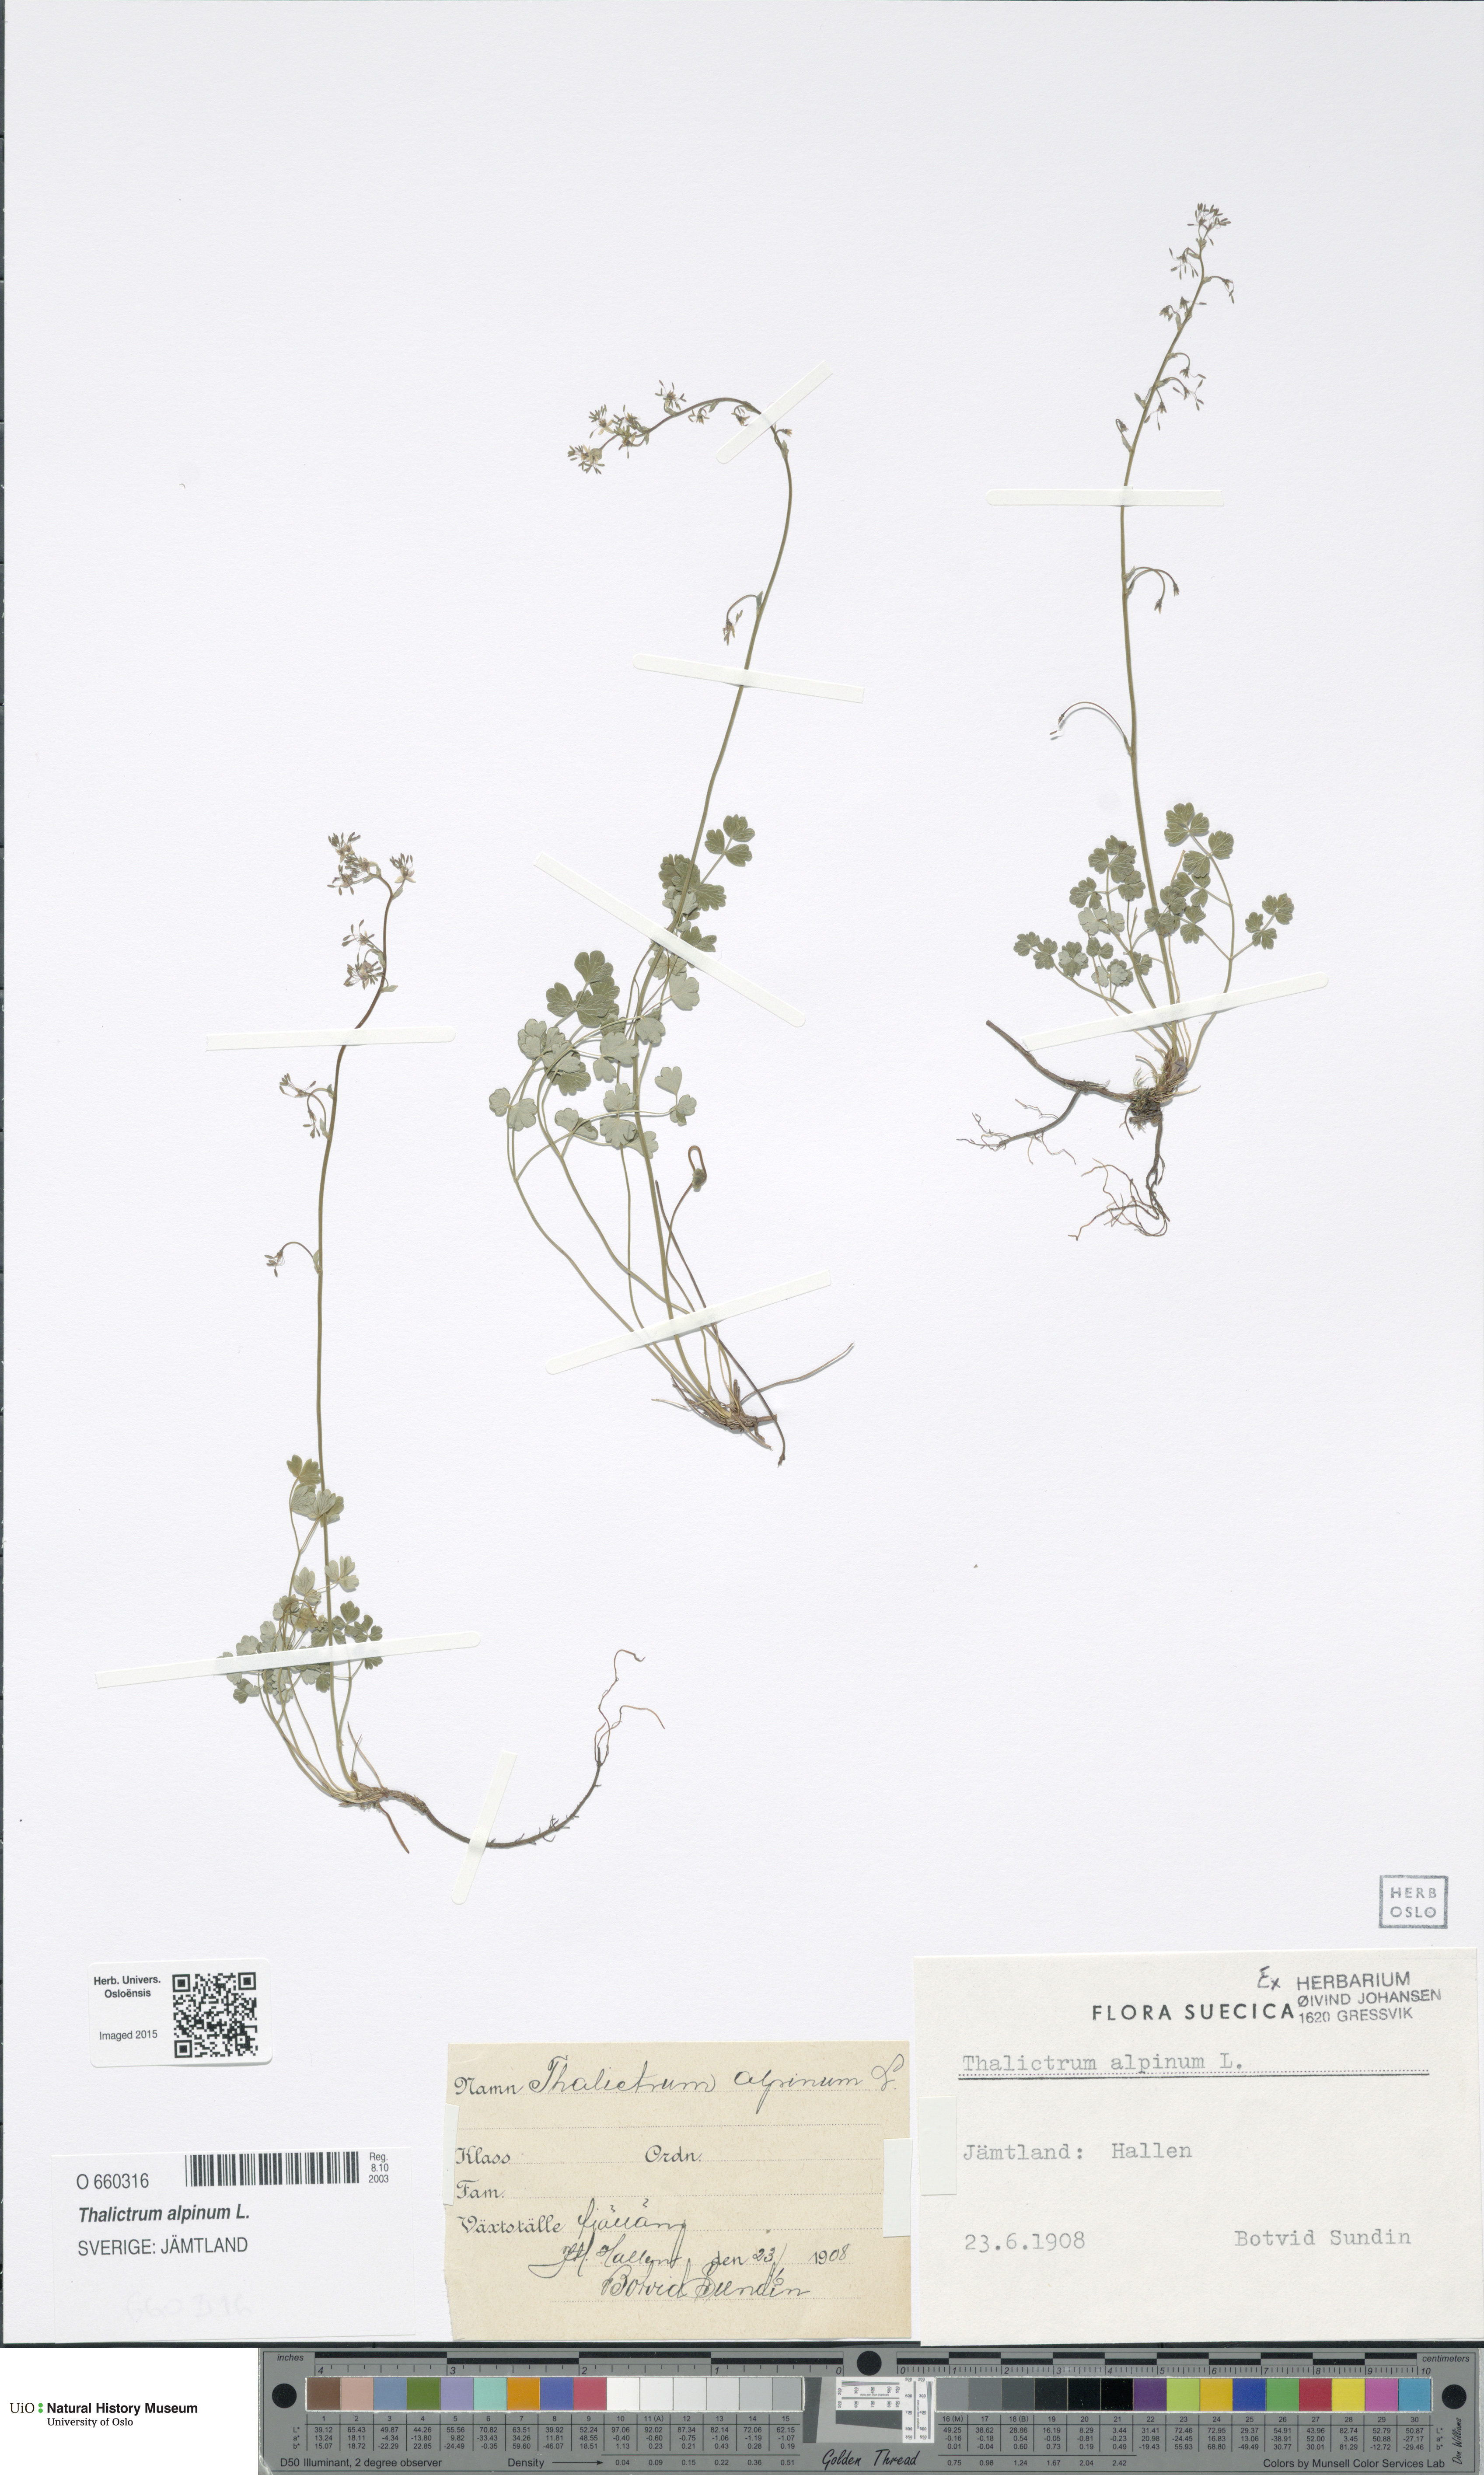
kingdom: Plantae
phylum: Tracheophyta
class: Magnoliopsida
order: Ranunculales
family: Ranunculaceae
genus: Thalictrum
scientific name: Thalictrum alpinum
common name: Alpine meadow-rue
